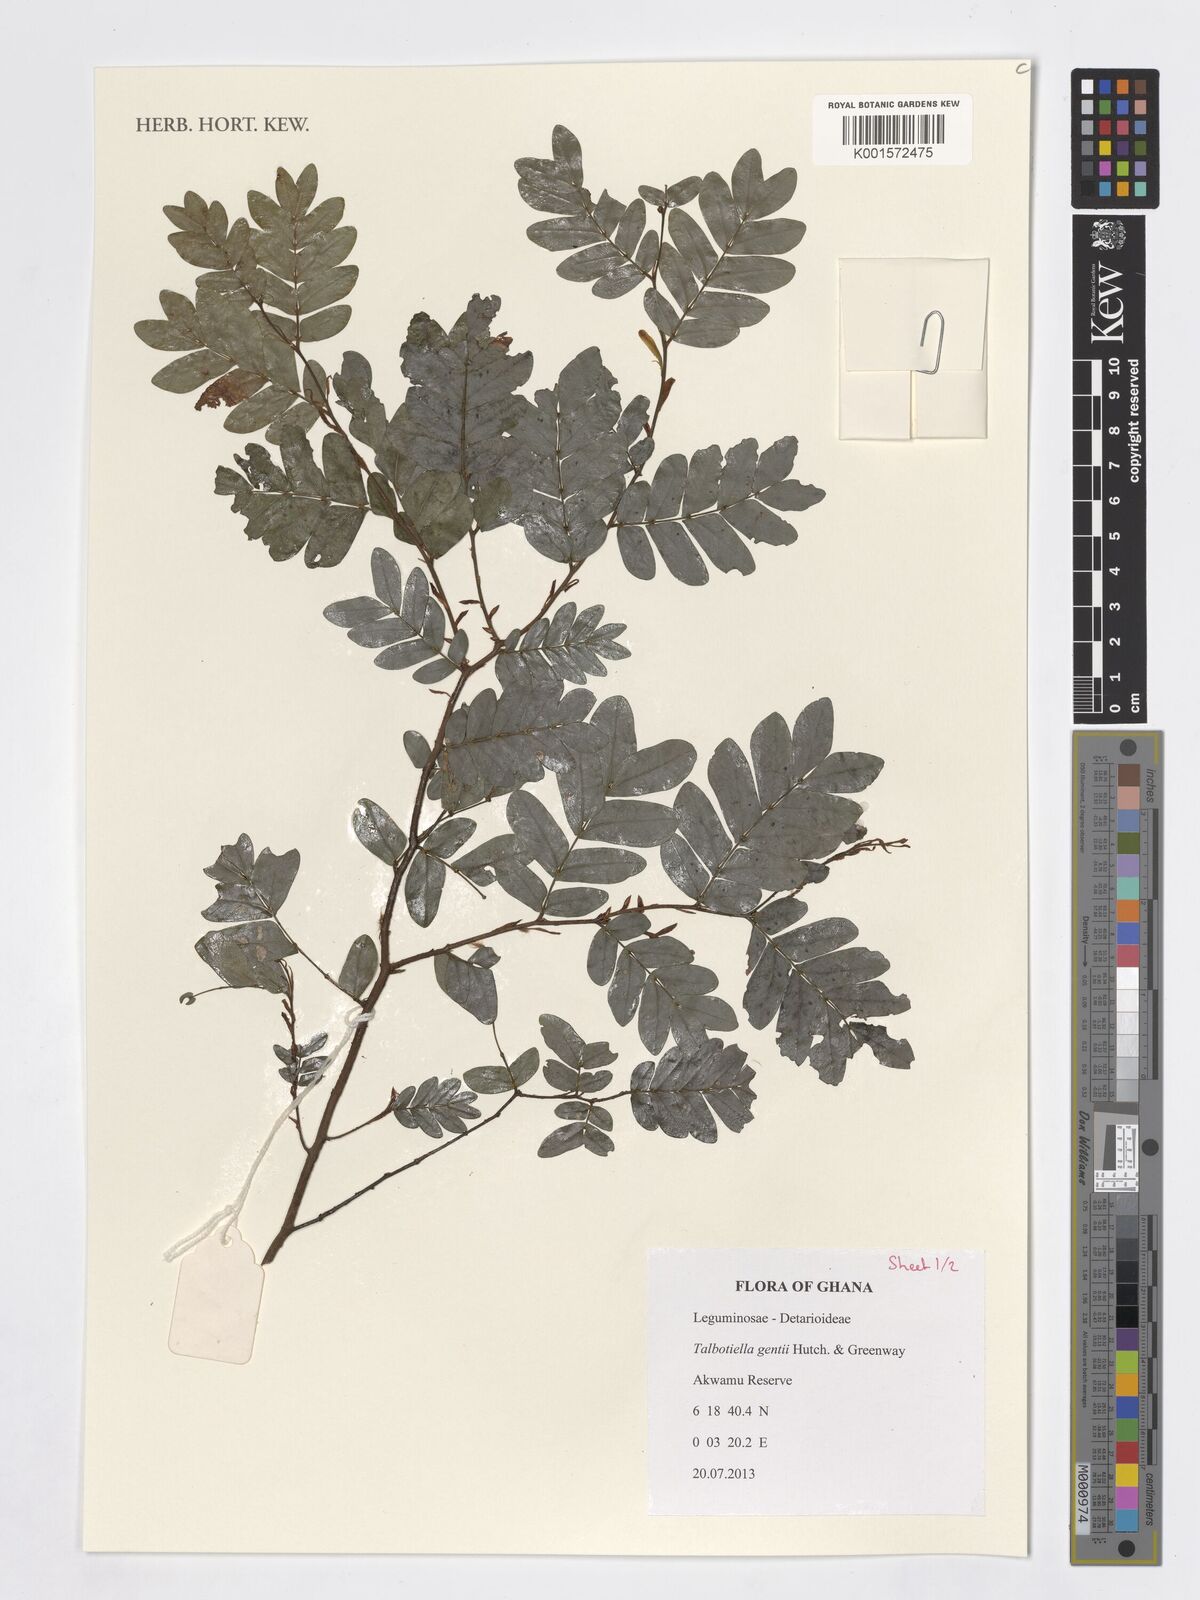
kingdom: Plantae
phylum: Tracheophyta
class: Magnoliopsida
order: Fabales
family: Fabaceae
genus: Talbotiella
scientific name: Talbotiella gentii
